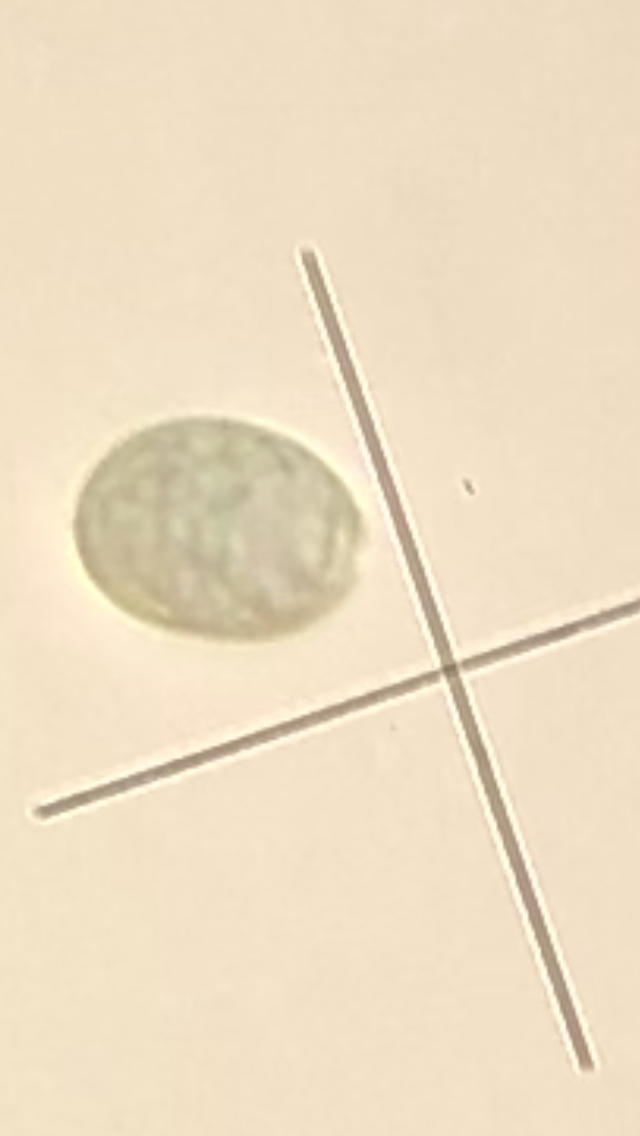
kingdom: Fungi
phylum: Basidiomycota
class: Agaricomycetes
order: Agaricales
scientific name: Agaricales
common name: champignonordenen
